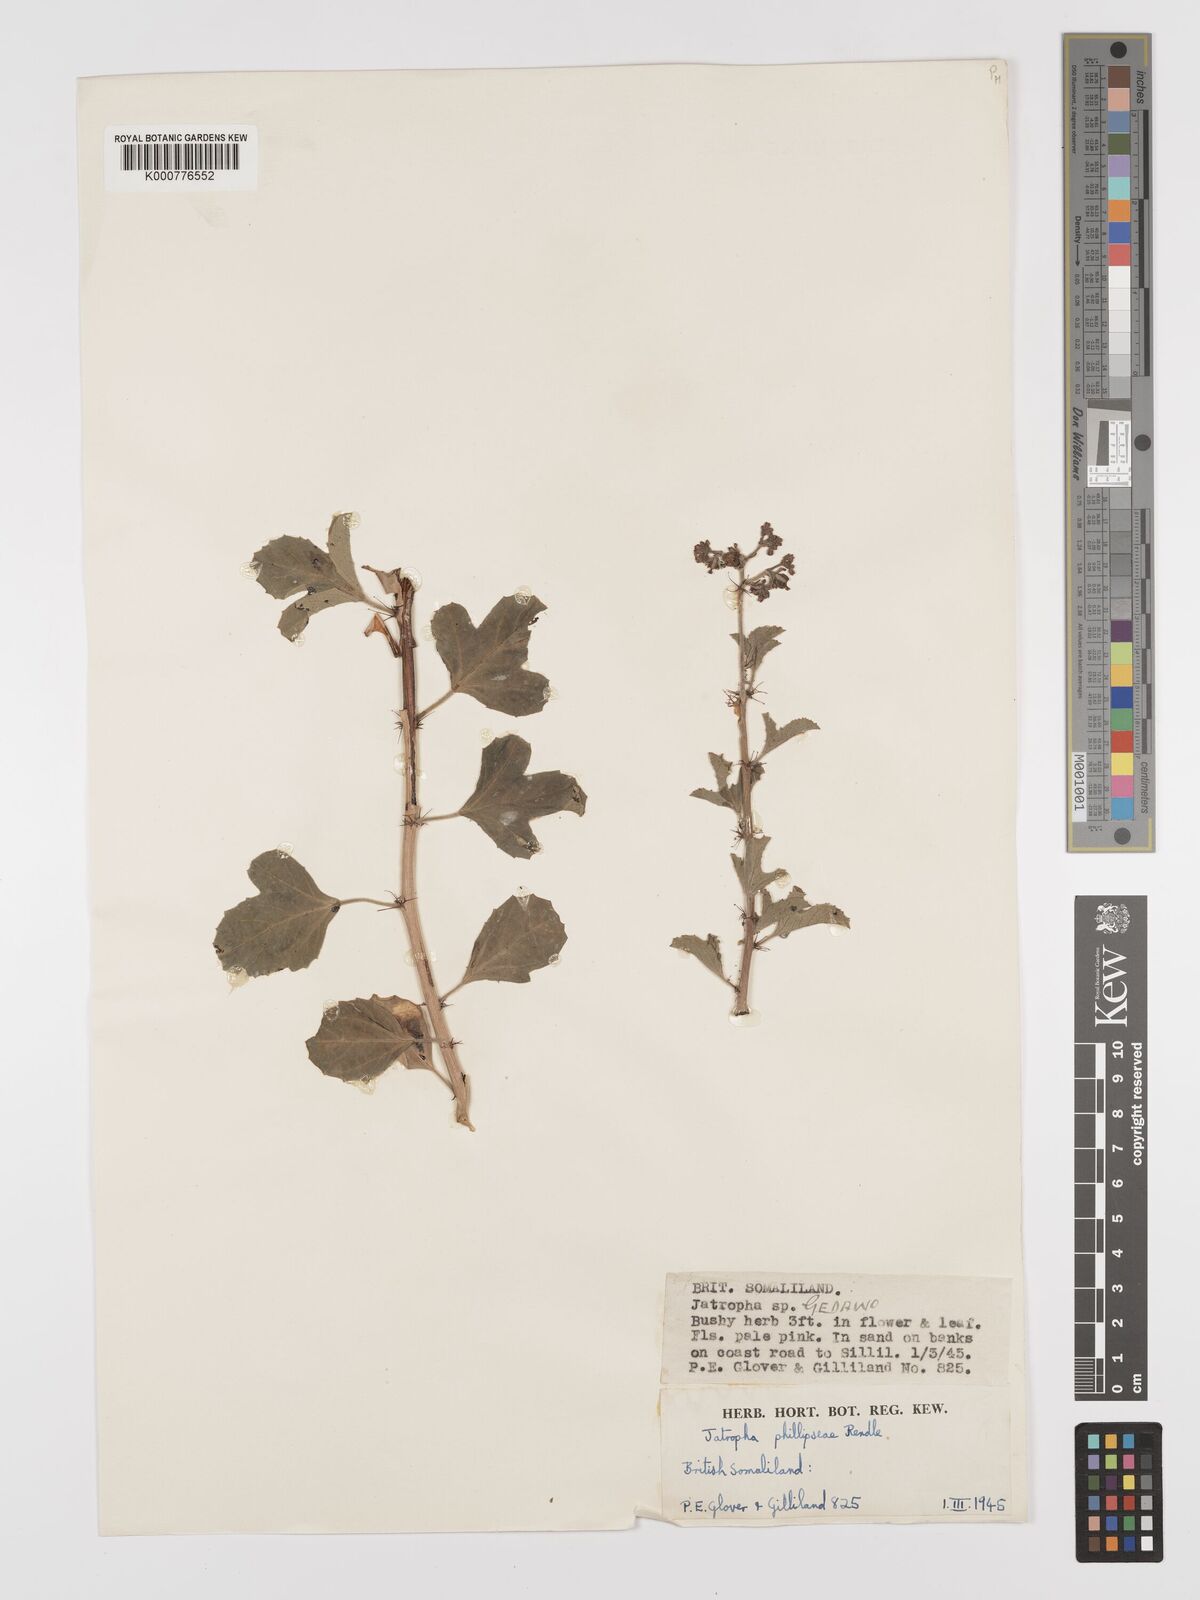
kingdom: Plantae
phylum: Tracheophyta
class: Magnoliopsida
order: Malpighiales
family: Euphorbiaceae
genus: Jatropha
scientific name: Jatropha phillipseae
